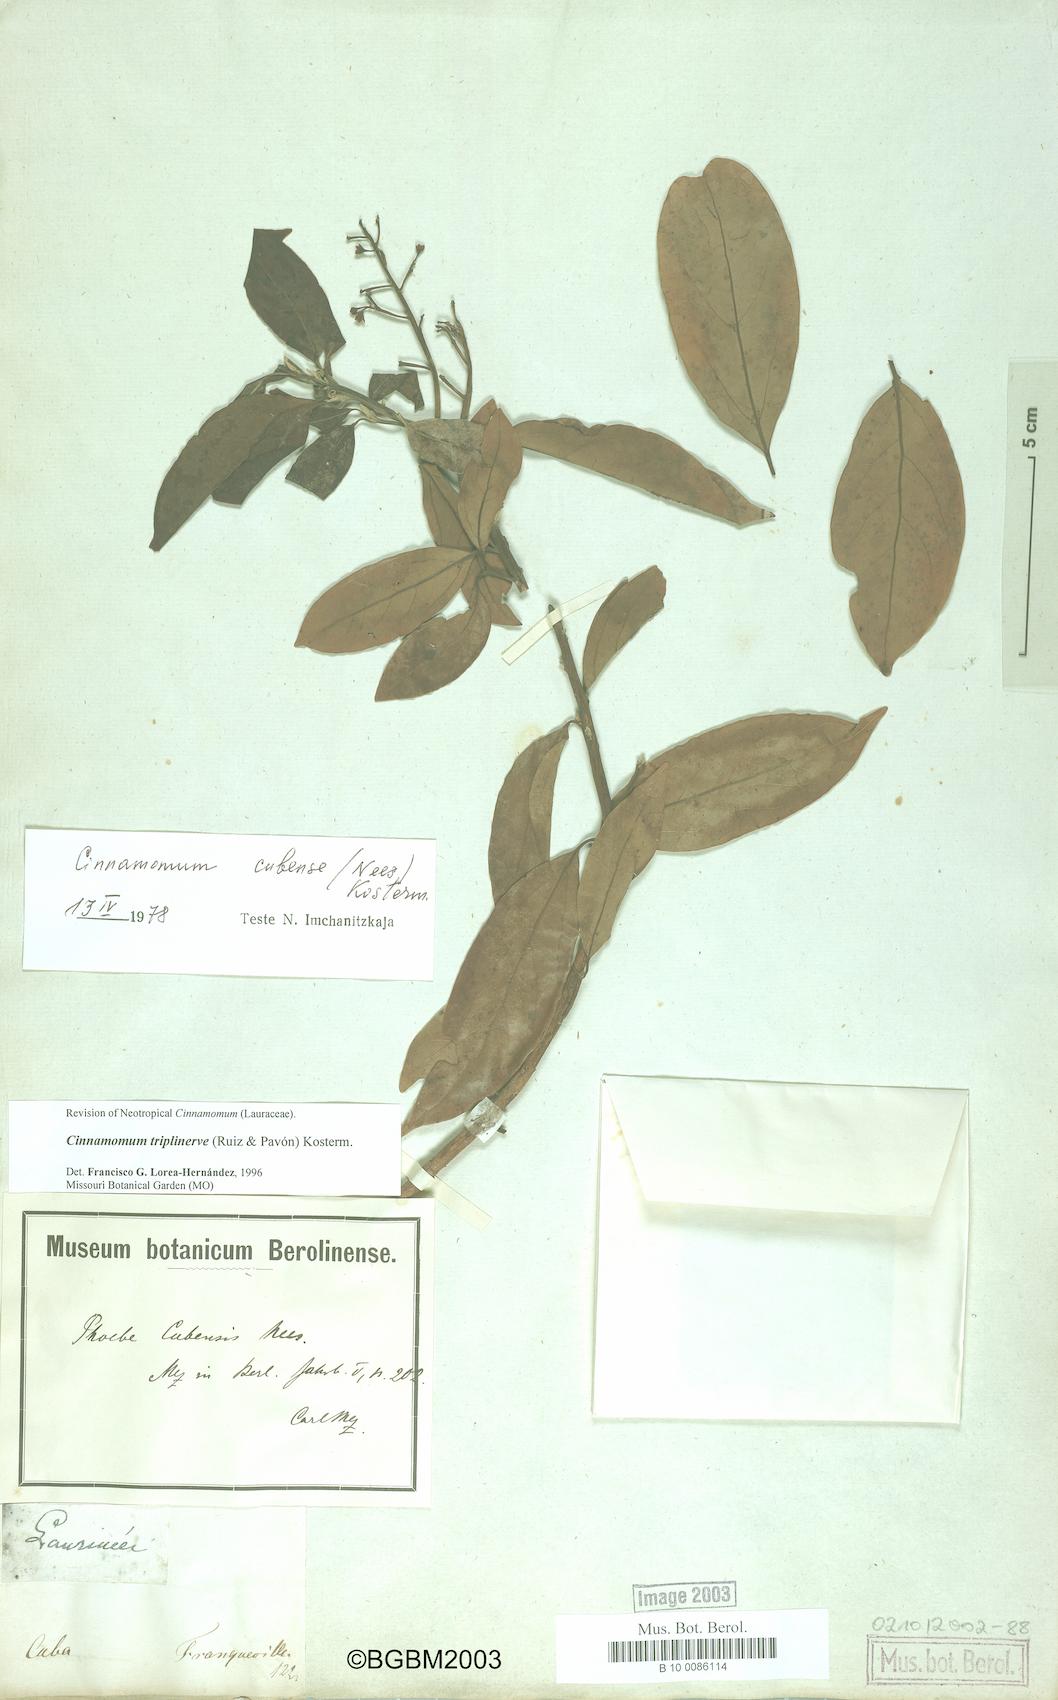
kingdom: Plantae
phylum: Tracheophyta
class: Magnoliopsida
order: Laurales
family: Lauraceae
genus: Aiouea
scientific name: Aiouea montana
